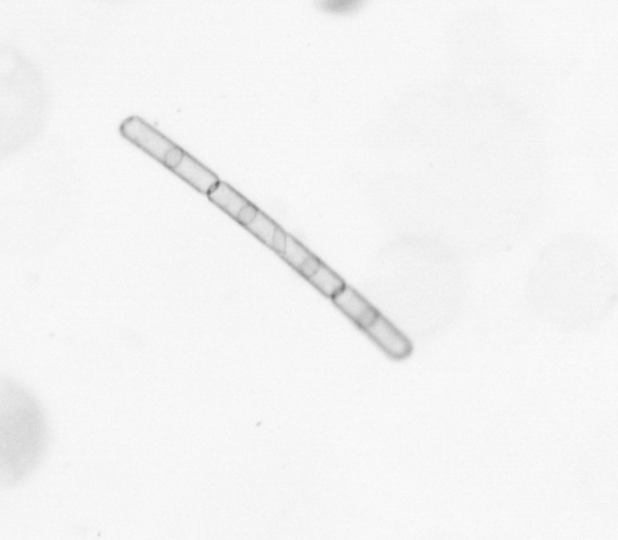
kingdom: Chromista
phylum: Ochrophyta
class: Bacillariophyceae
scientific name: Bacillariophyceae
